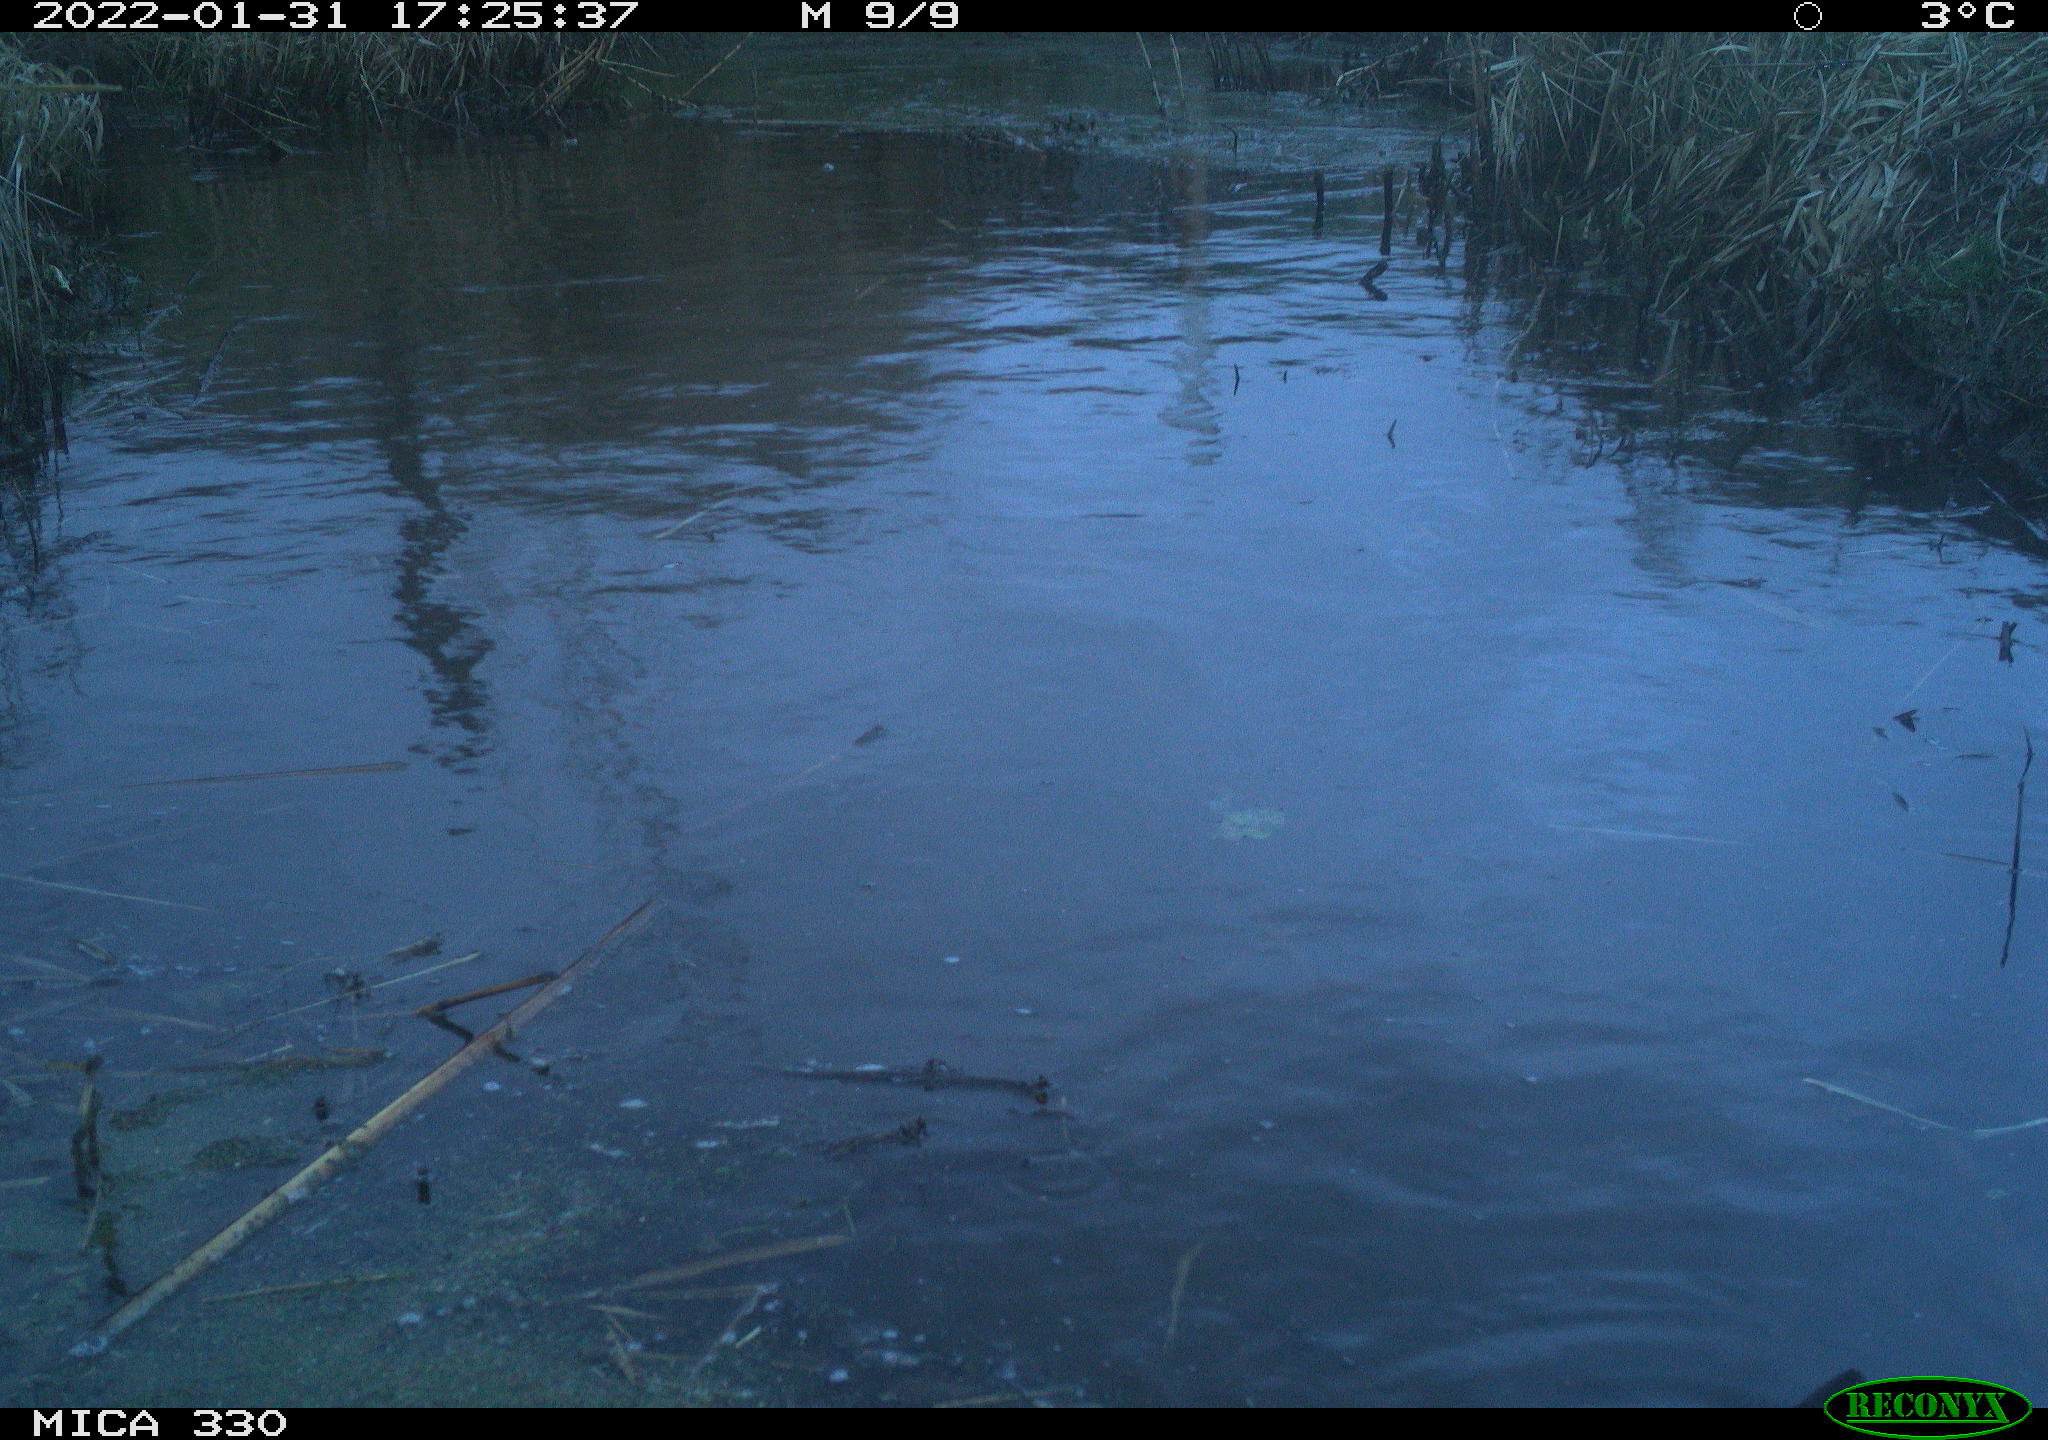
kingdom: Animalia
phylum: Chordata
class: Aves
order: Gruiformes
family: Rallidae
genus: Gallinula
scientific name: Gallinula chloropus
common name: Common moorhen
